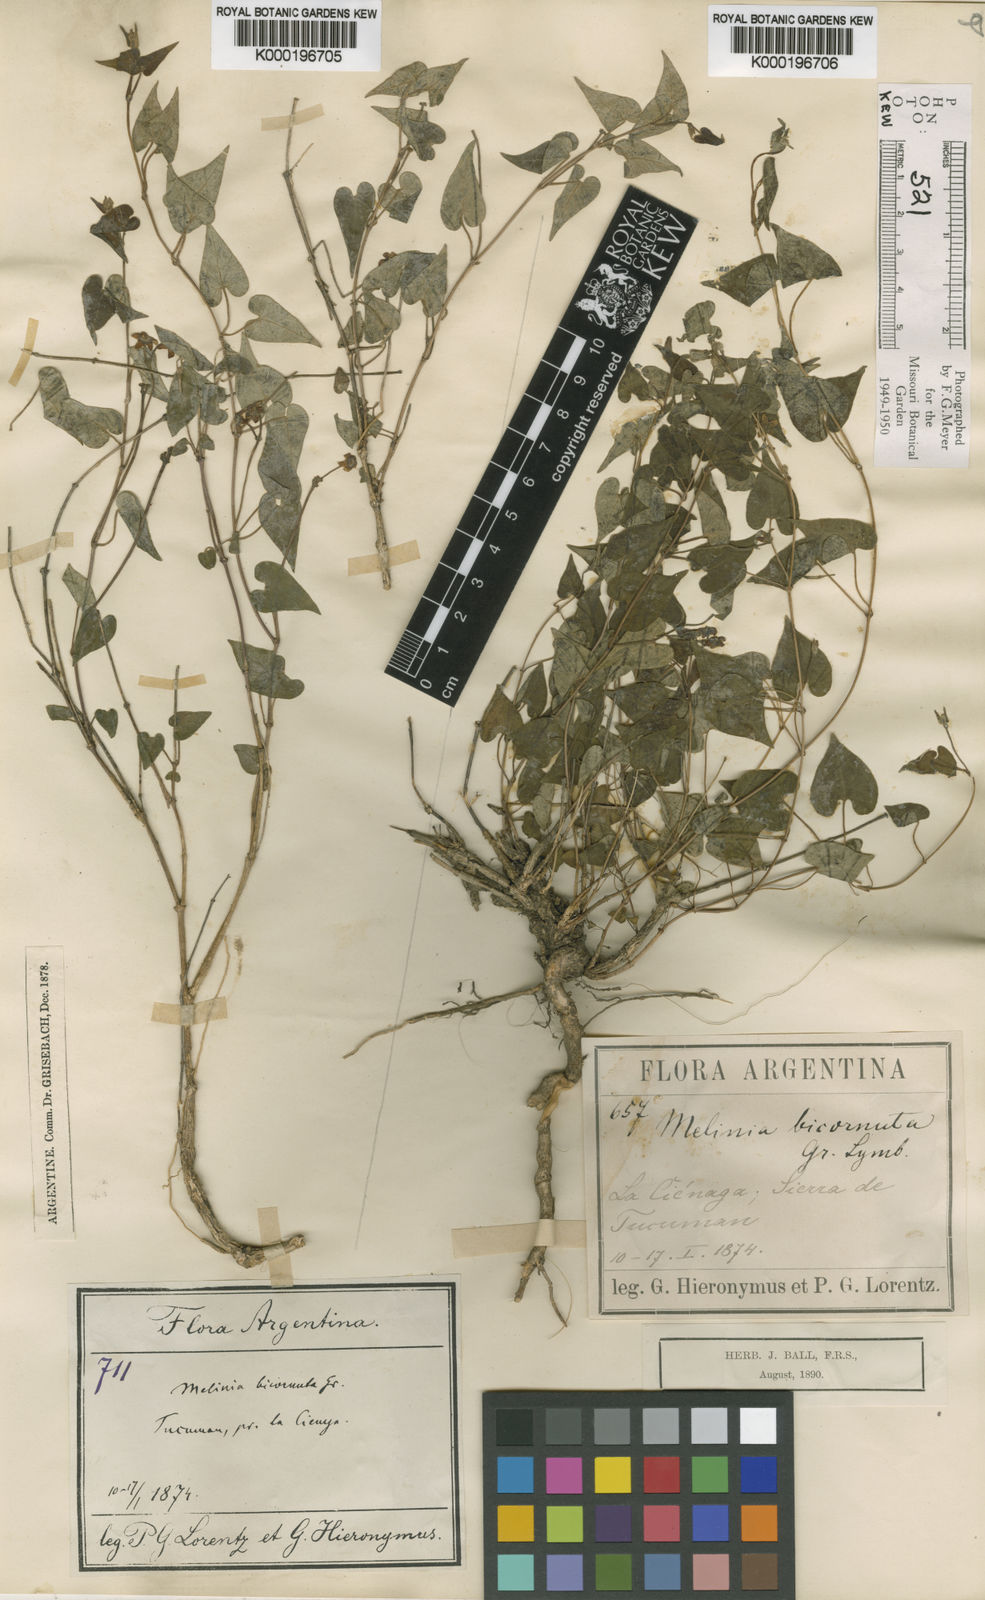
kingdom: Plantae
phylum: Tracheophyta
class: Magnoliopsida
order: Gentianales
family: Apocynaceae
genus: Philibertia
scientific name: Philibertia bicornuta
